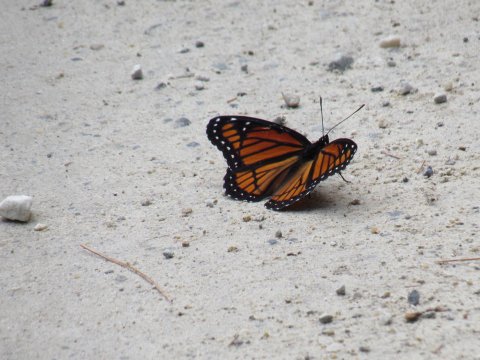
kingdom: Animalia
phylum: Arthropoda
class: Insecta
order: Lepidoptera
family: Nymphalidae
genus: Limenitis
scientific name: Limenitis archippus
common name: Viceroy
